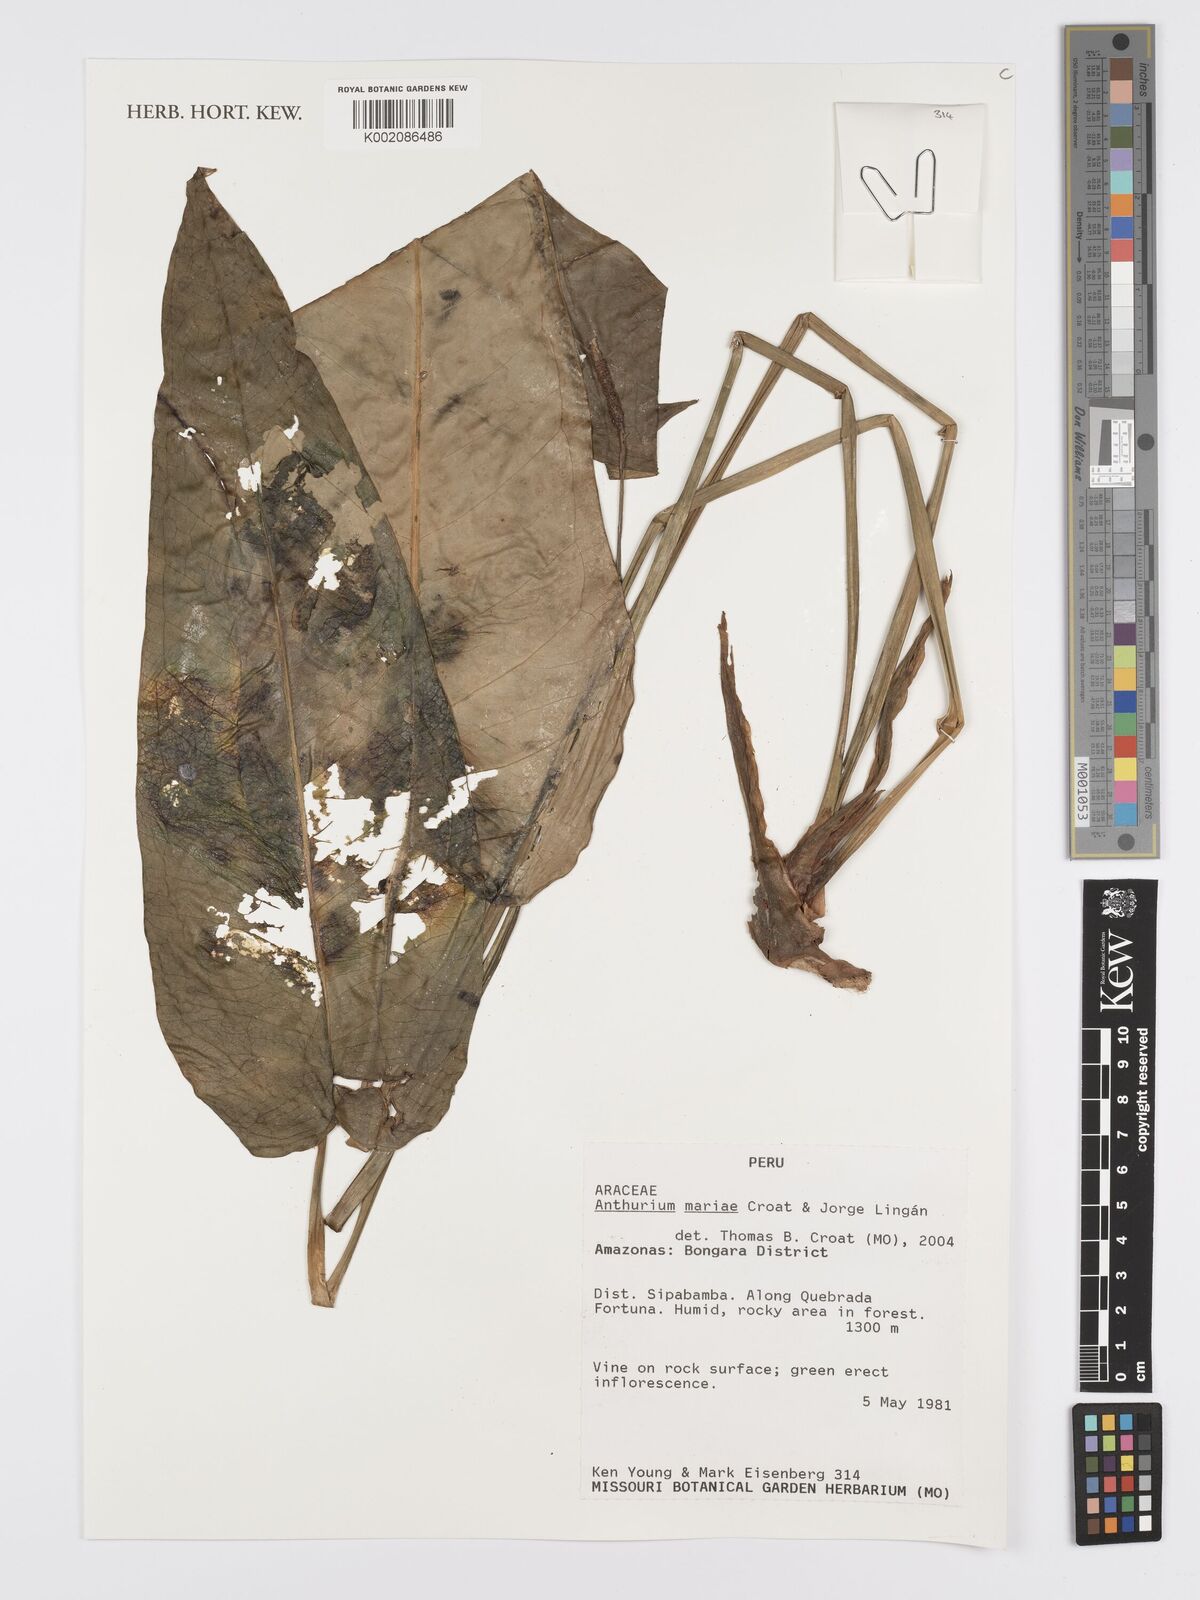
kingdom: Plantae
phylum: Tracheophyta
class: Liliopsida
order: Alismatales
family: Araceae
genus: Anthurium
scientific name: Anthurium mariae
